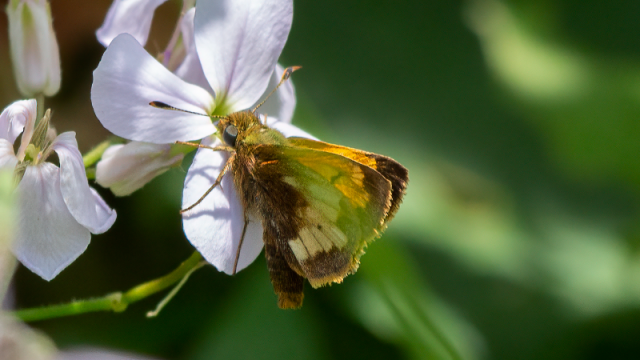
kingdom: Animalia
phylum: Arthropoda
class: Insecta
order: Lepidoptera
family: Hesperiidae
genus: Lon
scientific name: Lon hobomok
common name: Hobomok Skipper
